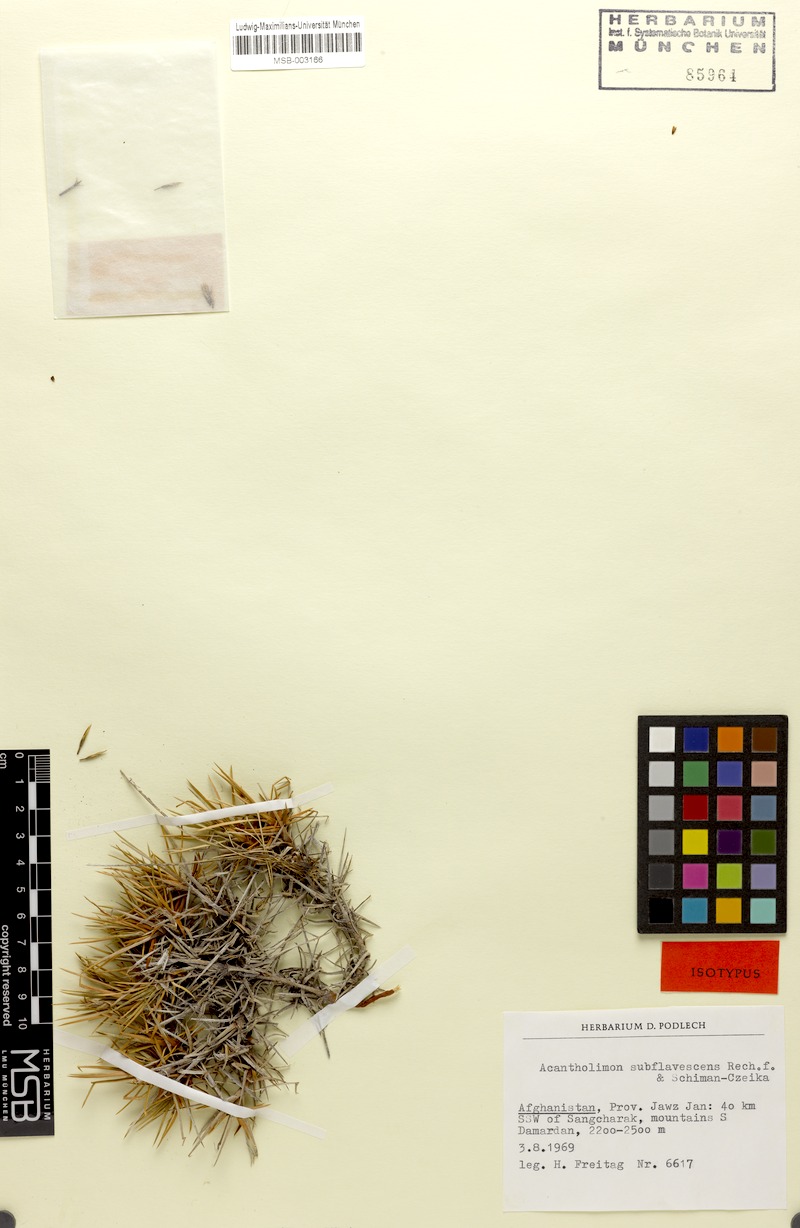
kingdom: Plantae
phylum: Tracheophyta
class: Magnoliopsida
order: Caryophyllales
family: Plumbaginaceae
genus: Acantholimon
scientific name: Acantholimon subflavescens
